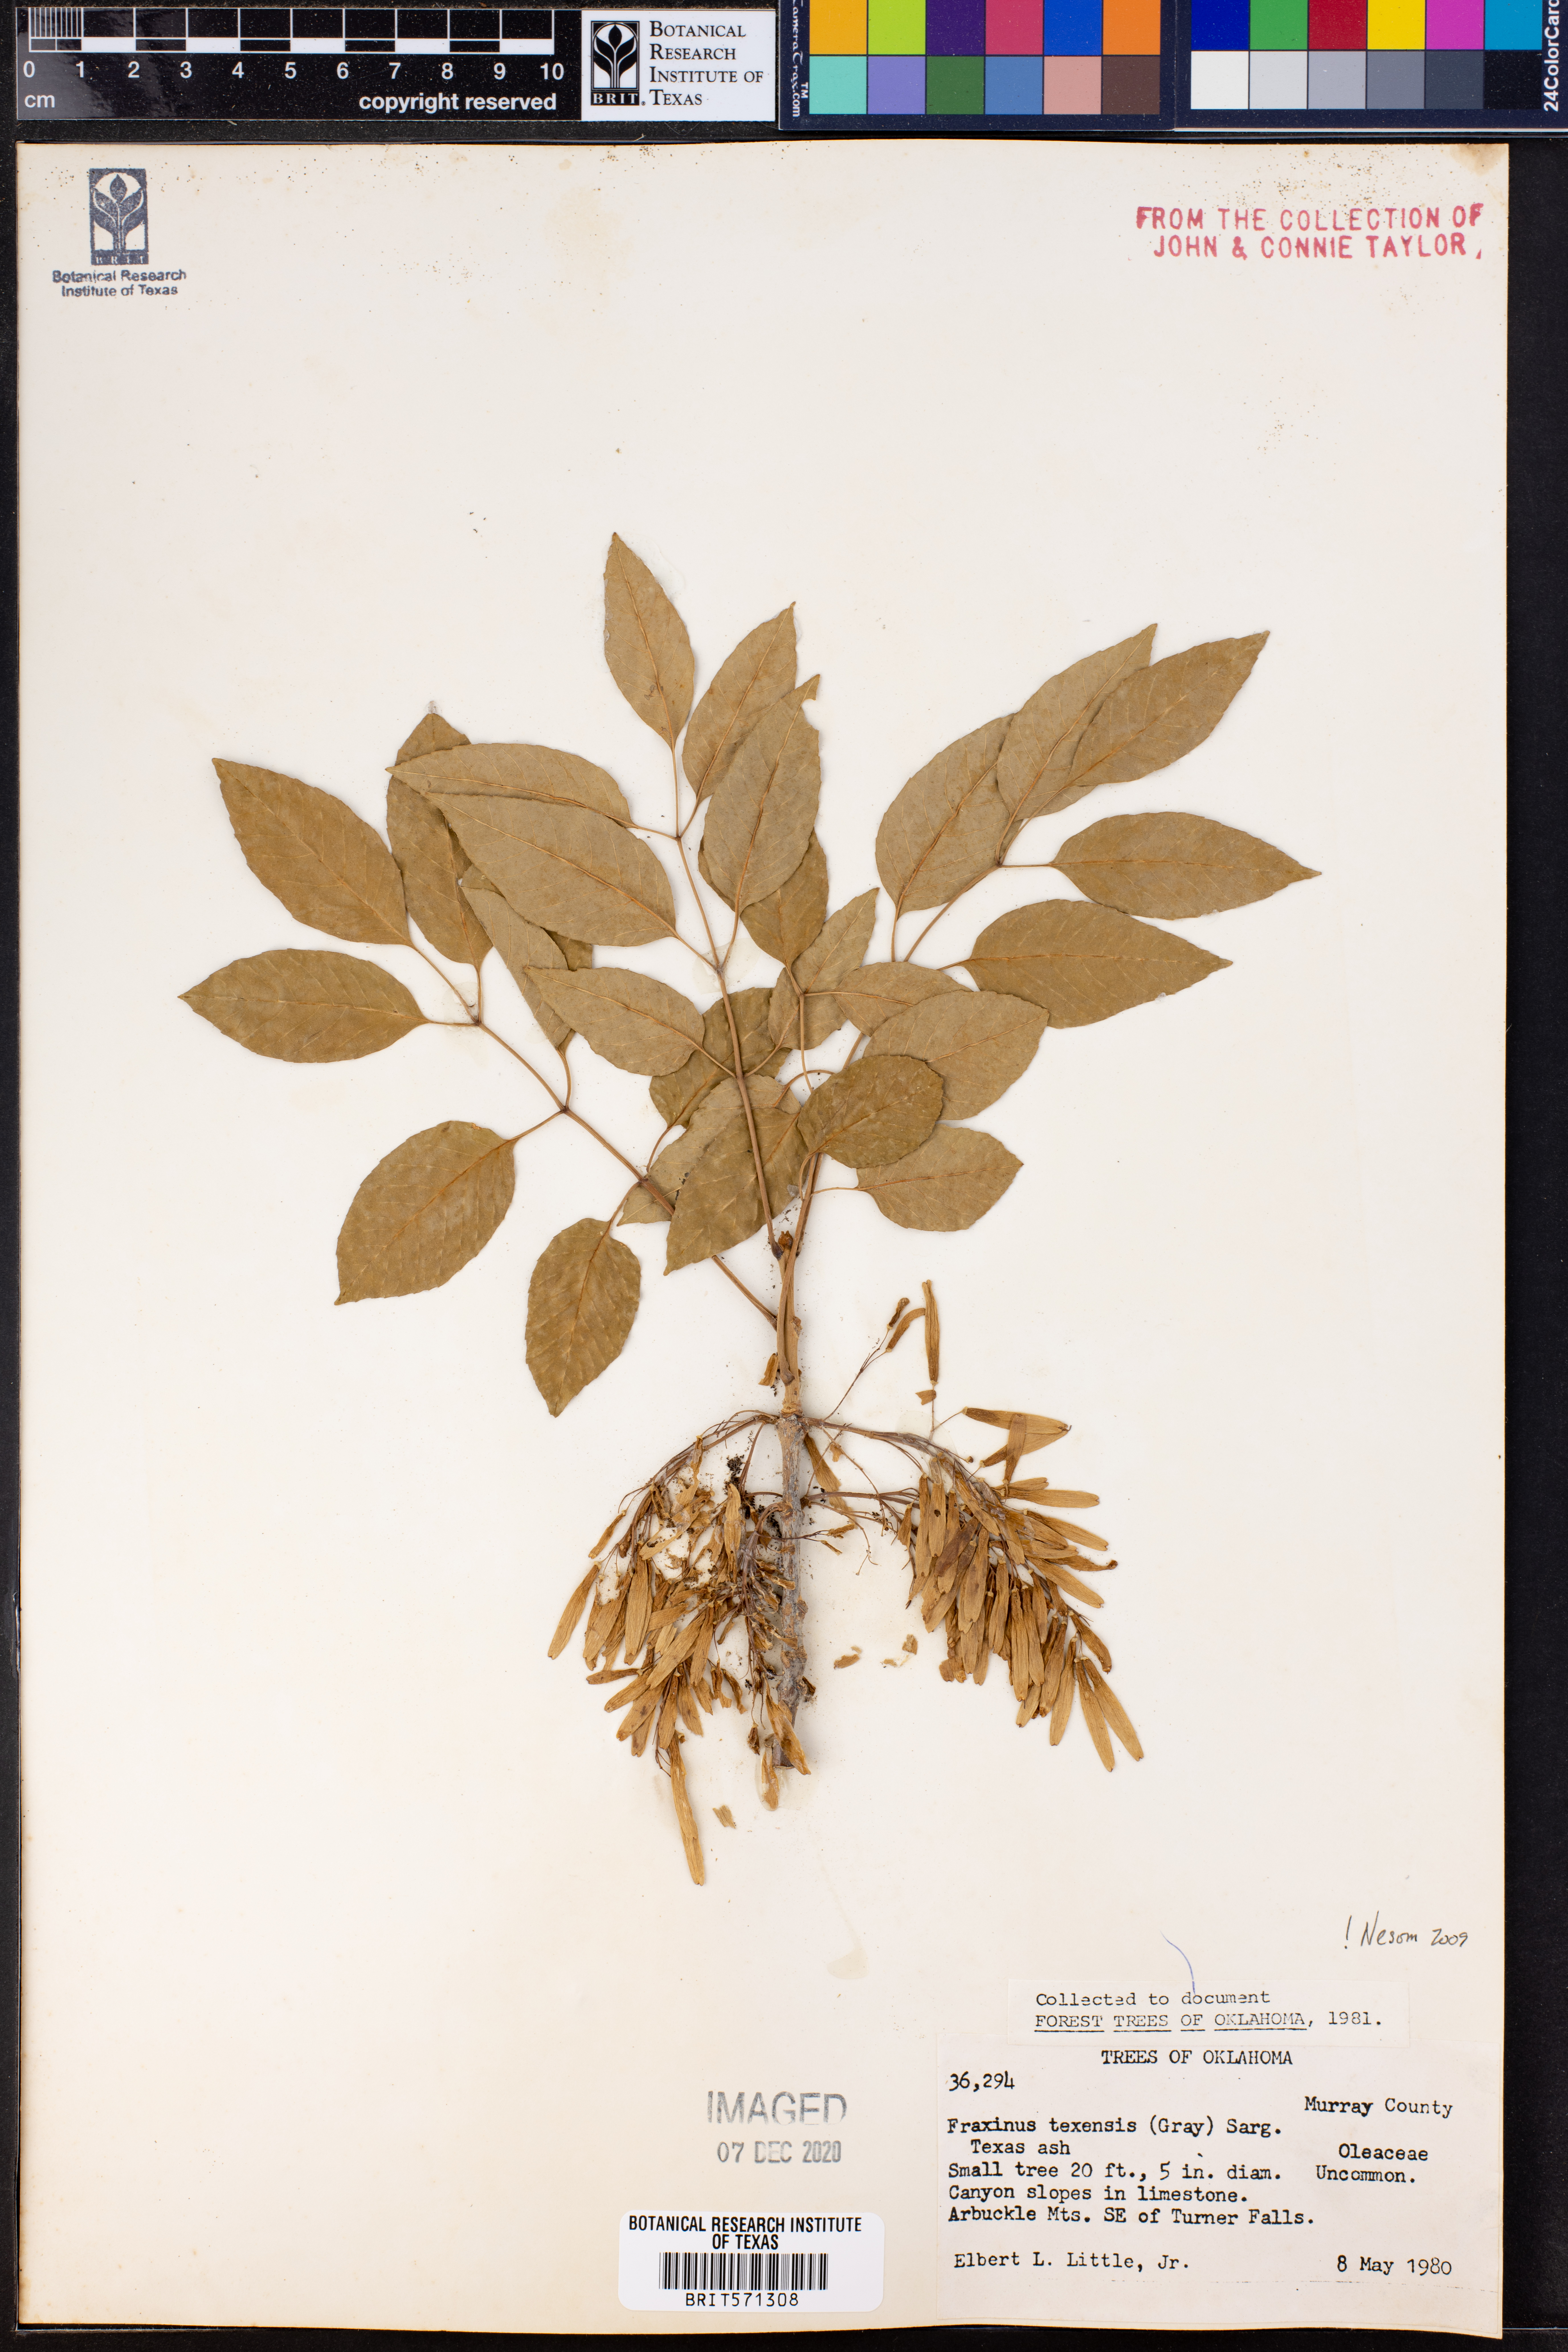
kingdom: Plantae
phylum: Tracheophyta
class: Magnoliopsida
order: Lamiales
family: Oleaceae
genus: Fraxinus
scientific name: Fraxinus albicans
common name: Texas ash
